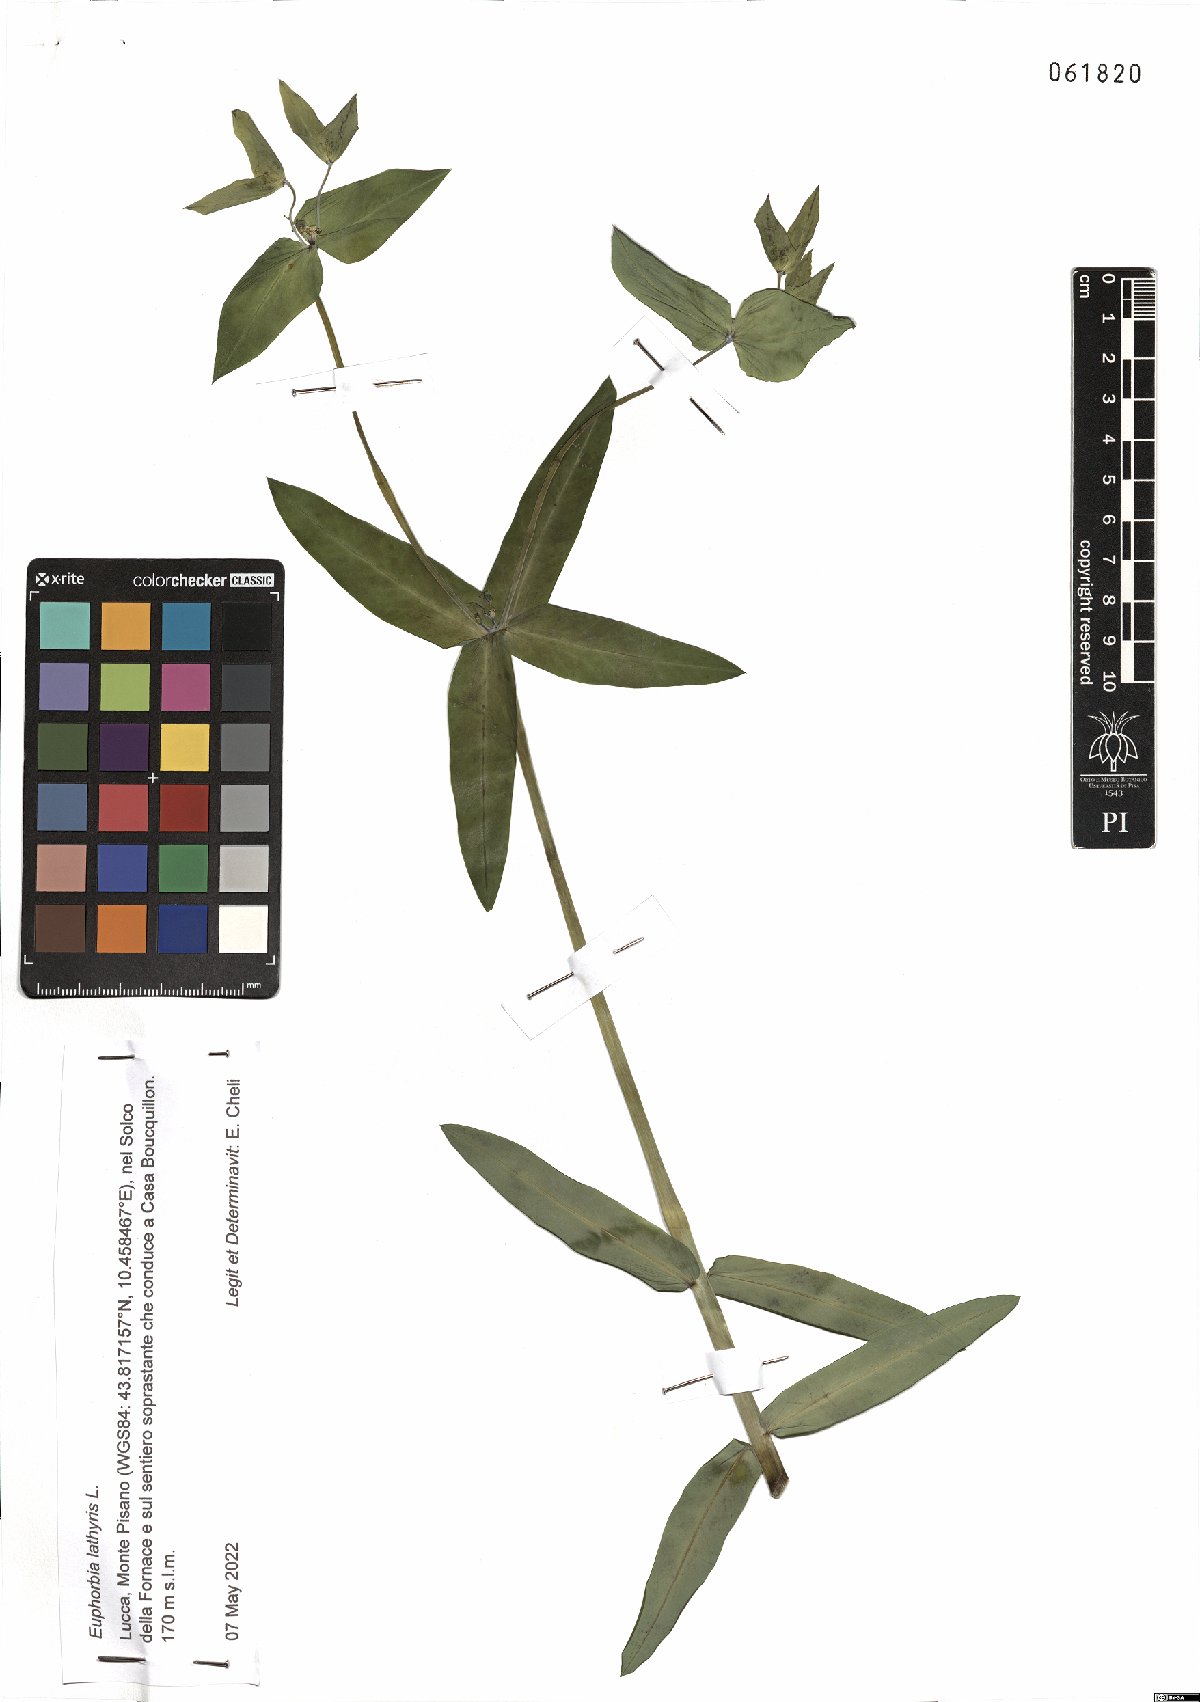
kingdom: Plantae
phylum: Tracheophyta
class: Magnoliopsida
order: Malpighiales
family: Euphorbiaceae
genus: Euphorbia
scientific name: Euphorbia lathyris
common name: Caper spurge
